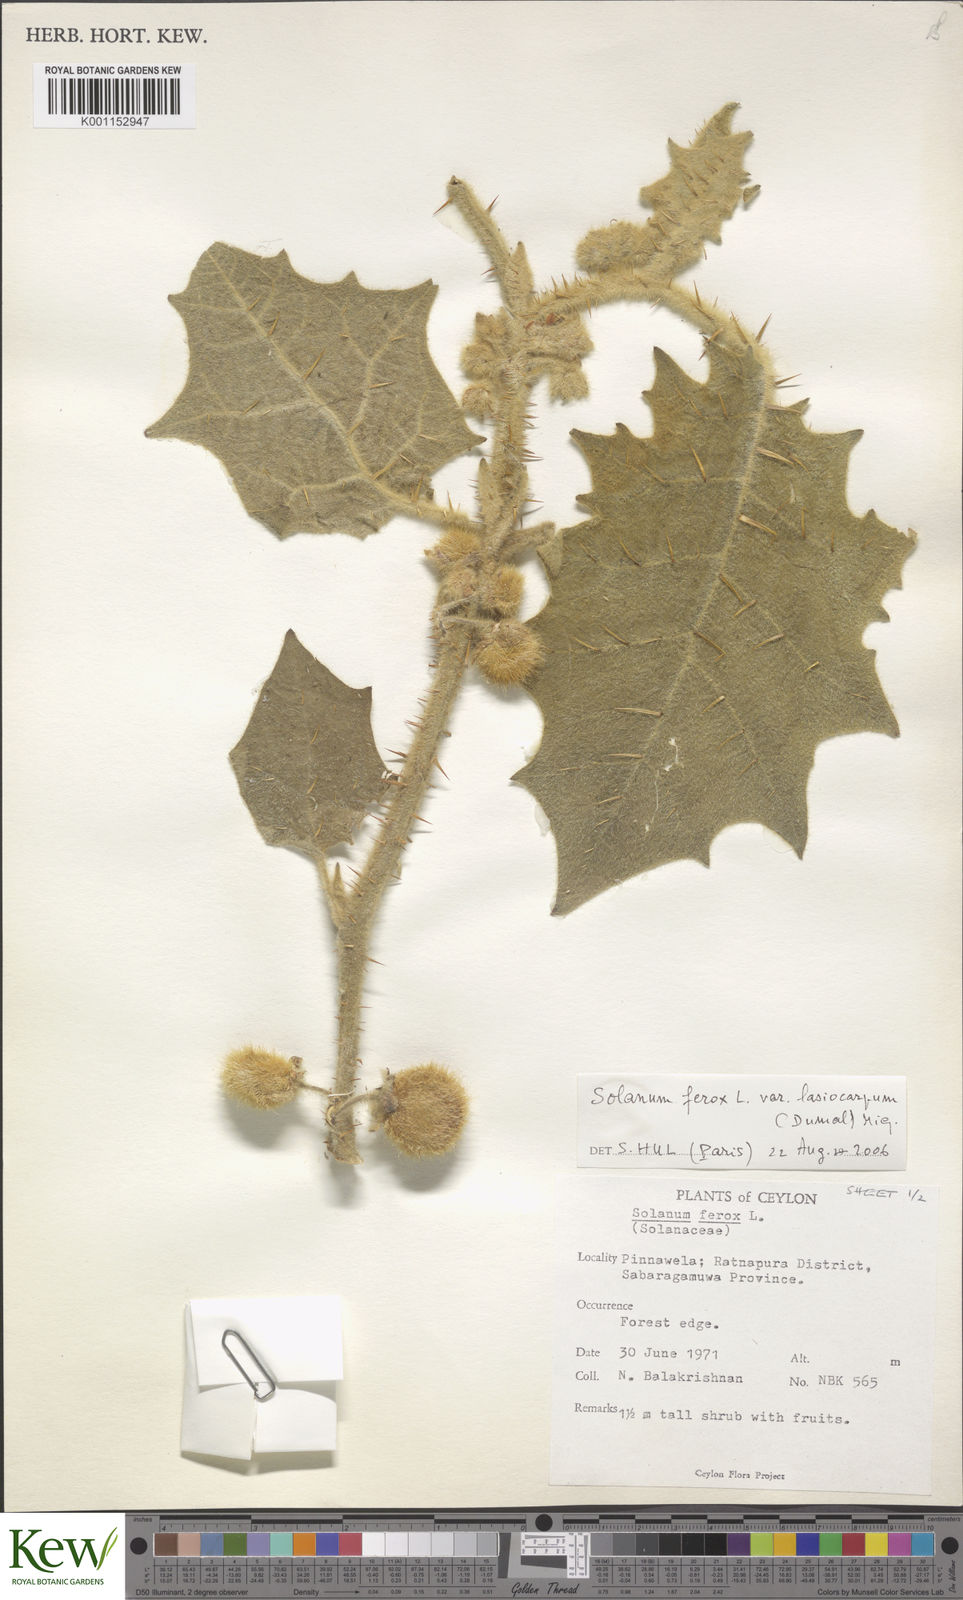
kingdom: Plantae
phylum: Tracheophyta
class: Magnoliopsida
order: Solanales
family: Solanaceae
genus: Solanum
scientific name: Solanum
